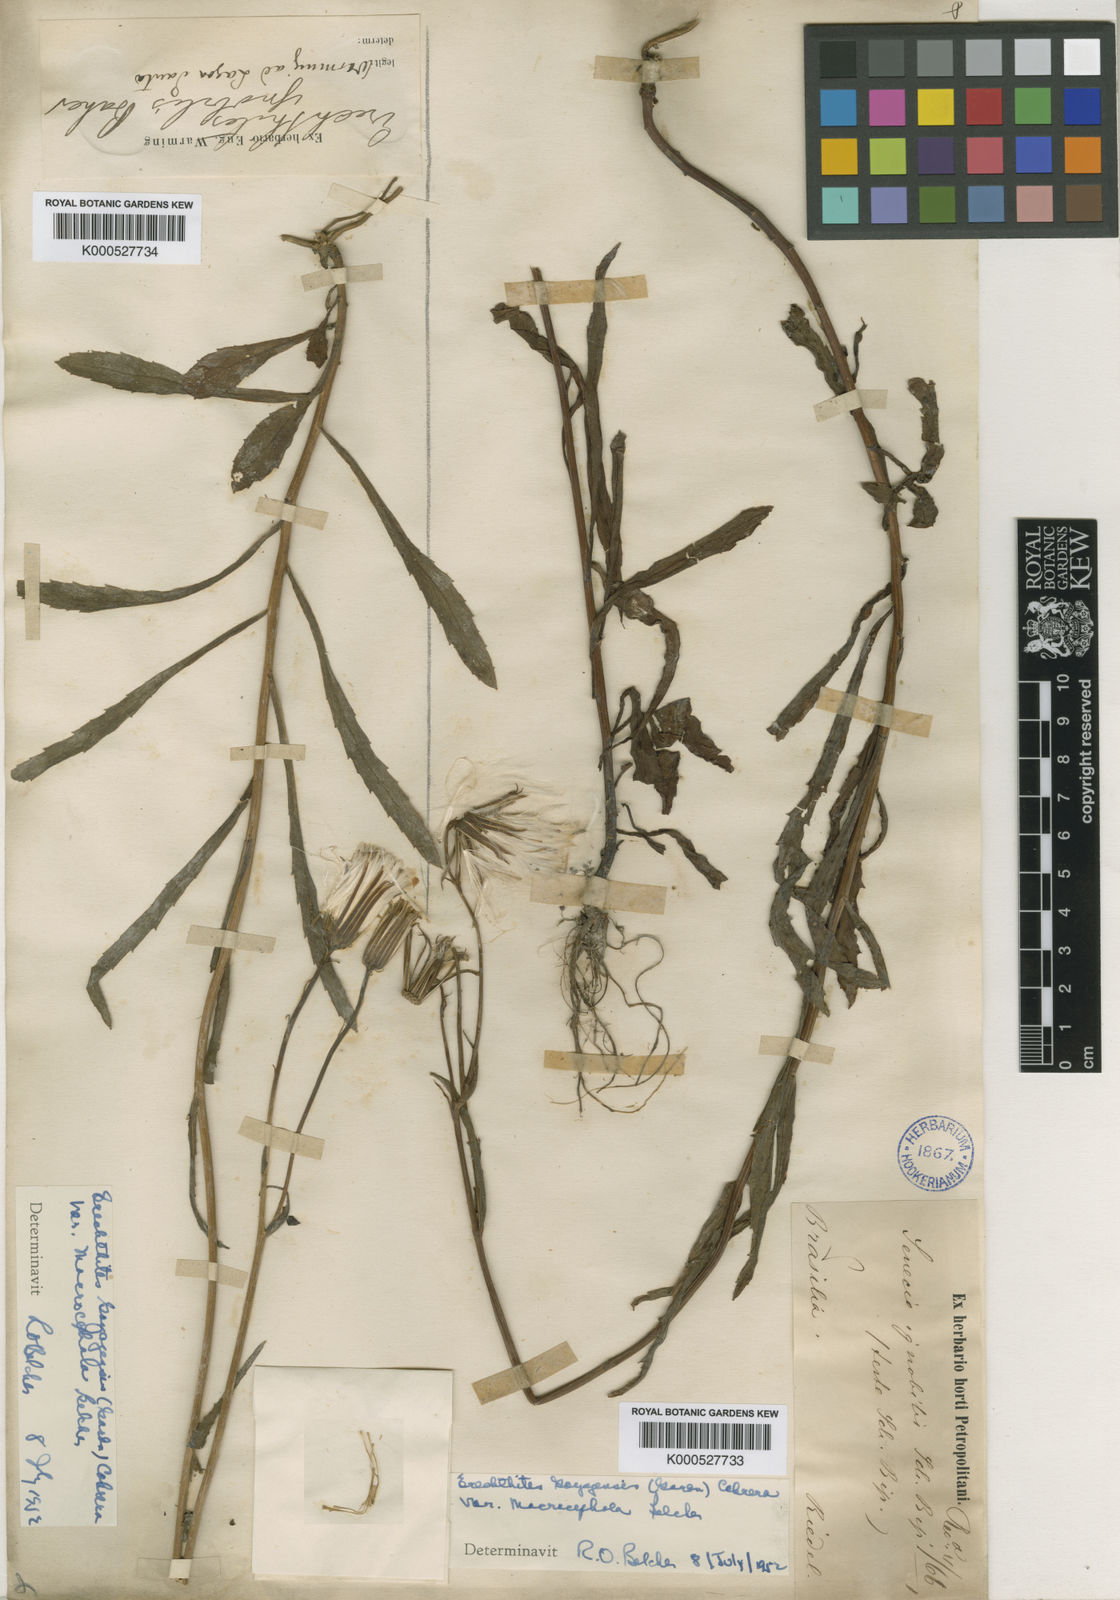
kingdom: Plantae
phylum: Tracheophyta
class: Magnoliopsida
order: Asterales
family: Asteraceae
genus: Erechtites
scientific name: Erechtites ignobilis
